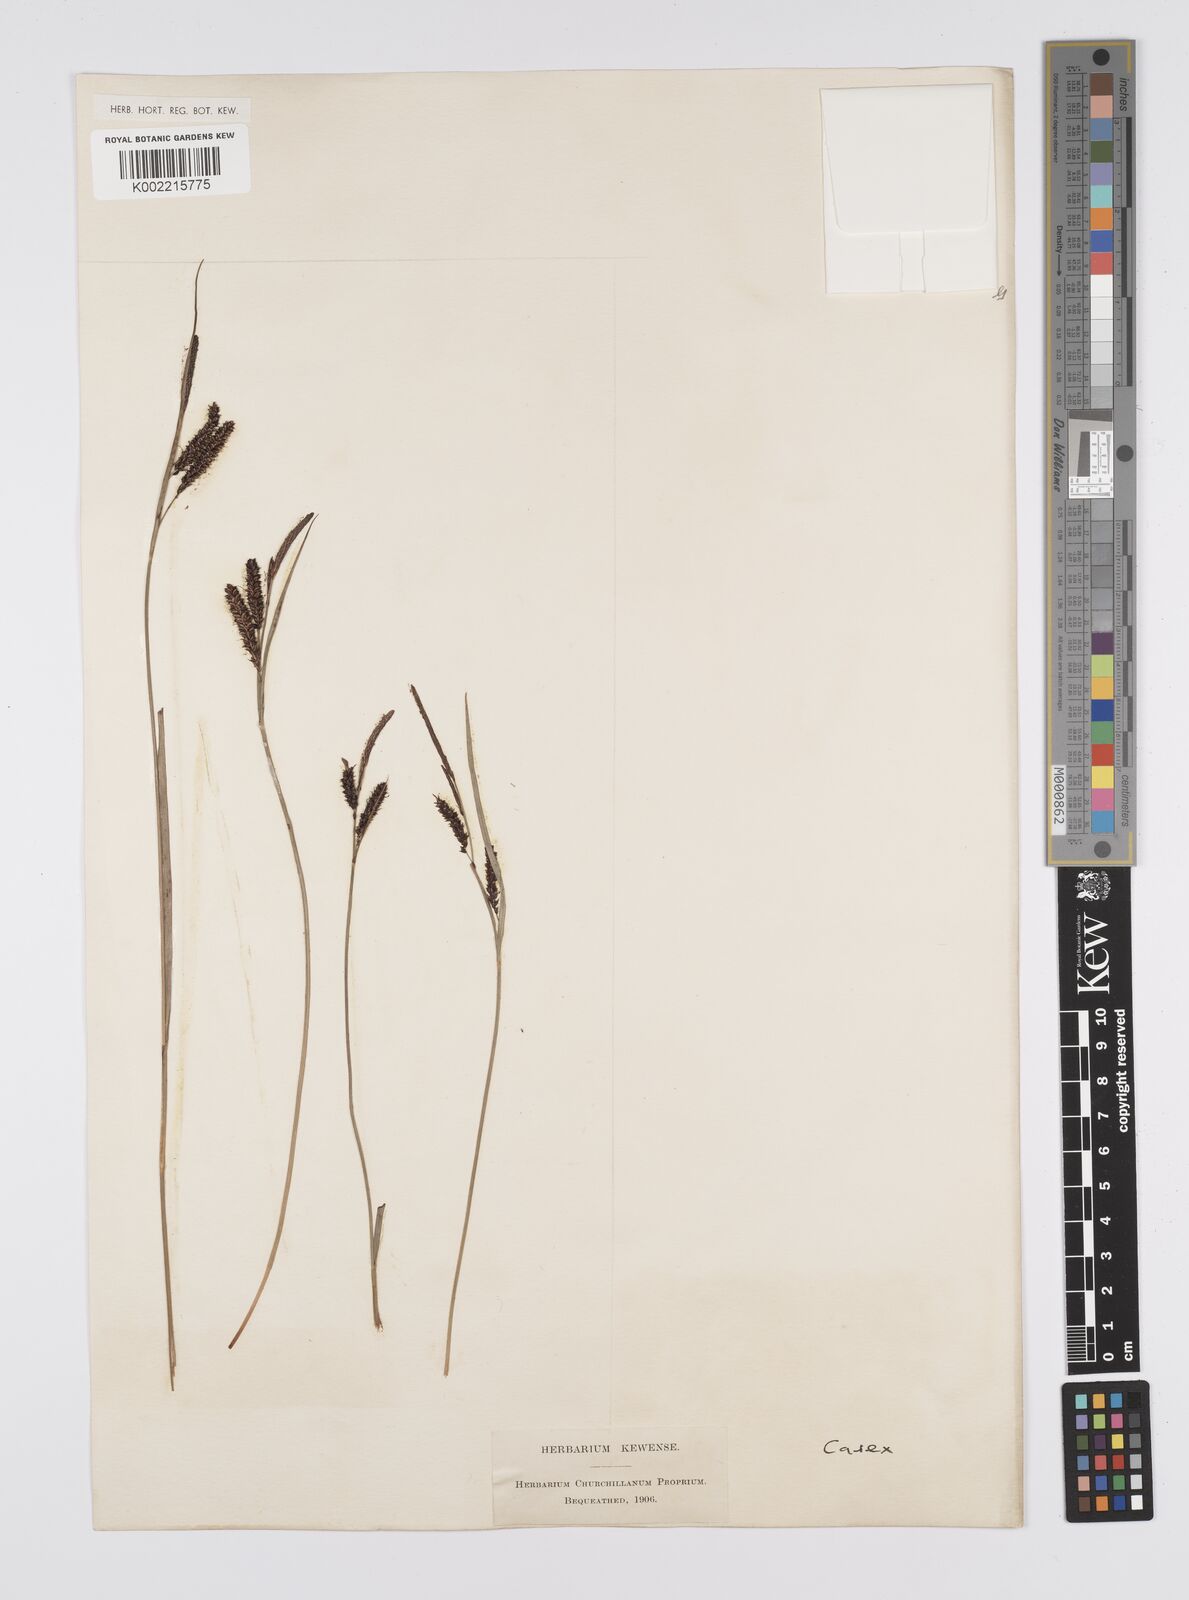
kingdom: Plantae
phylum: Tracheophyta
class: Liliopsida
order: Poales
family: Cyperaceae
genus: Carex
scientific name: Carex
